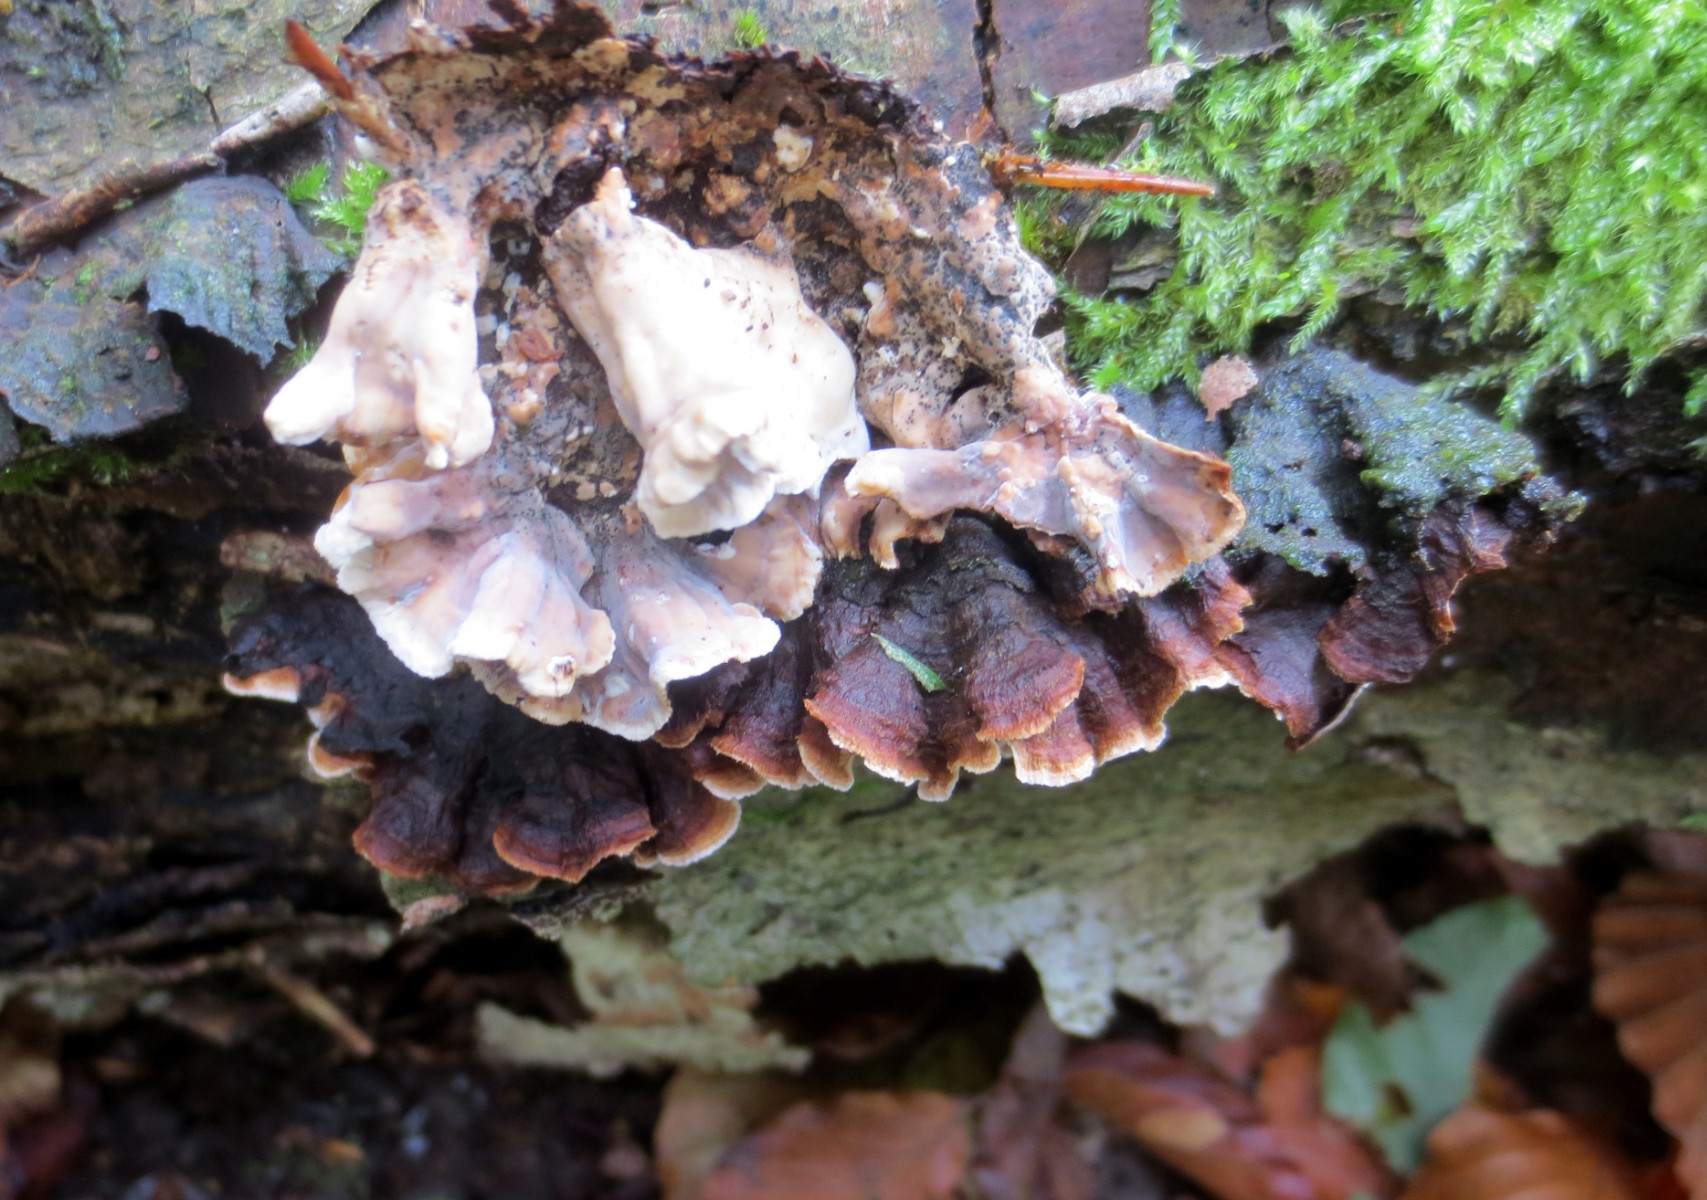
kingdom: Fungi
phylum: Basidiomycota
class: Agaricomycetes
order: Russulales
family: Hericiaceae
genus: Laxitextum
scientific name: Laxitextum bicolor
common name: tvefarvet filtskind
